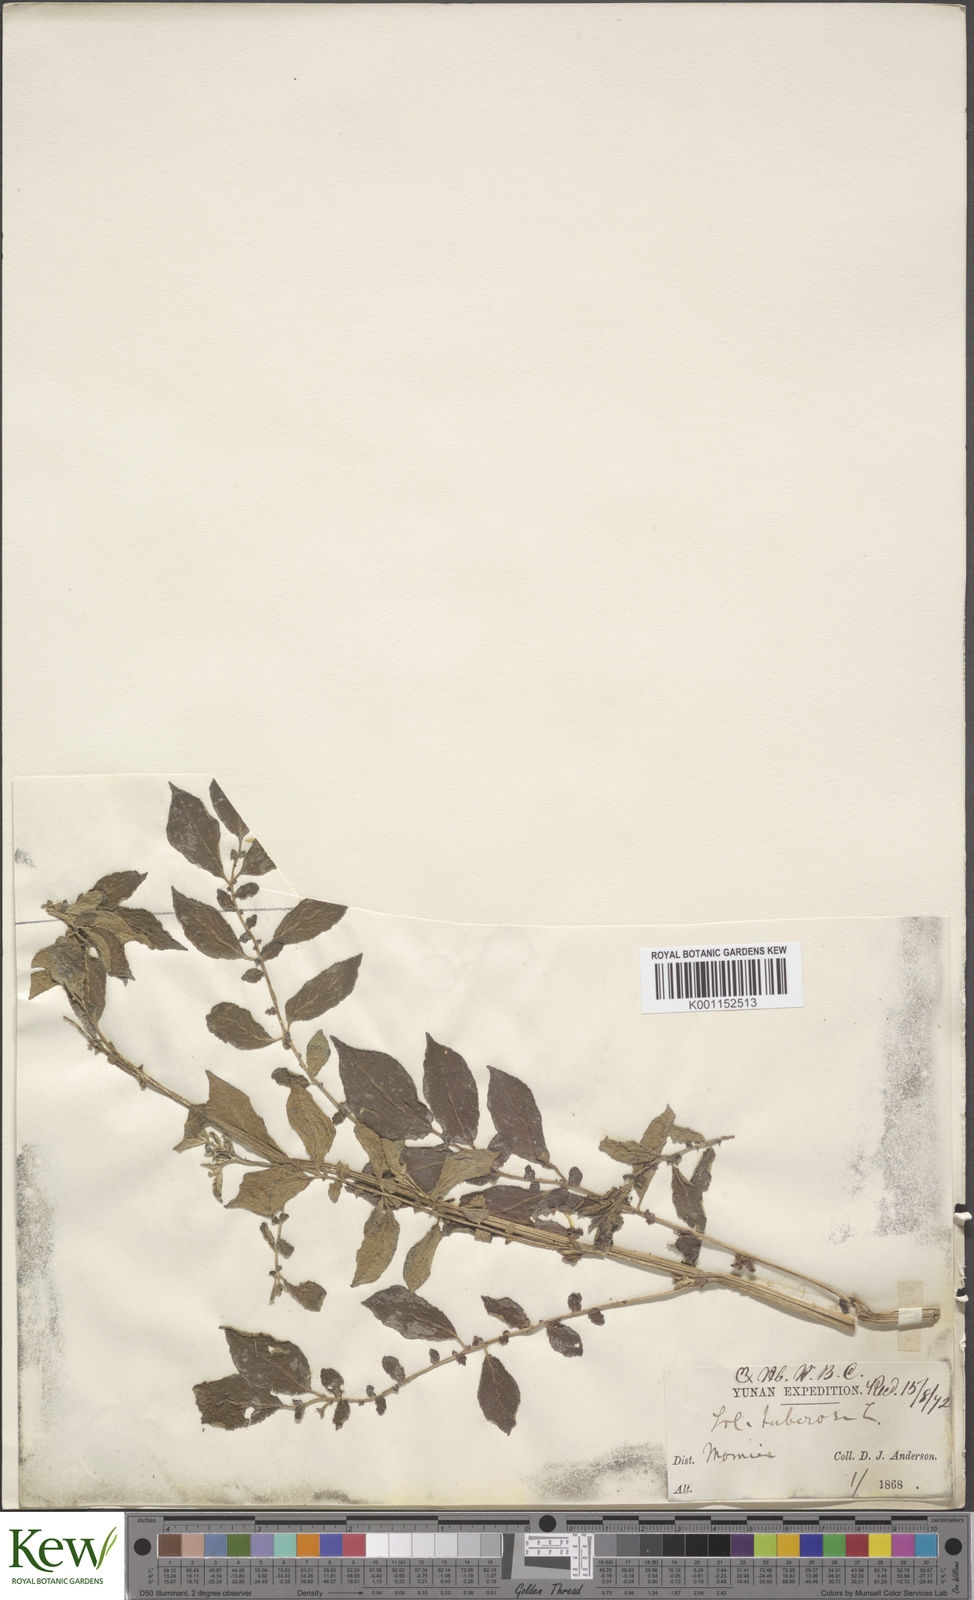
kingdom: Plantae
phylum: Tracheophyta
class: Magnoliopsida
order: Solanales
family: Solanaceae
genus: Solanum
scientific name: Solanum tuberosum
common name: Potato
